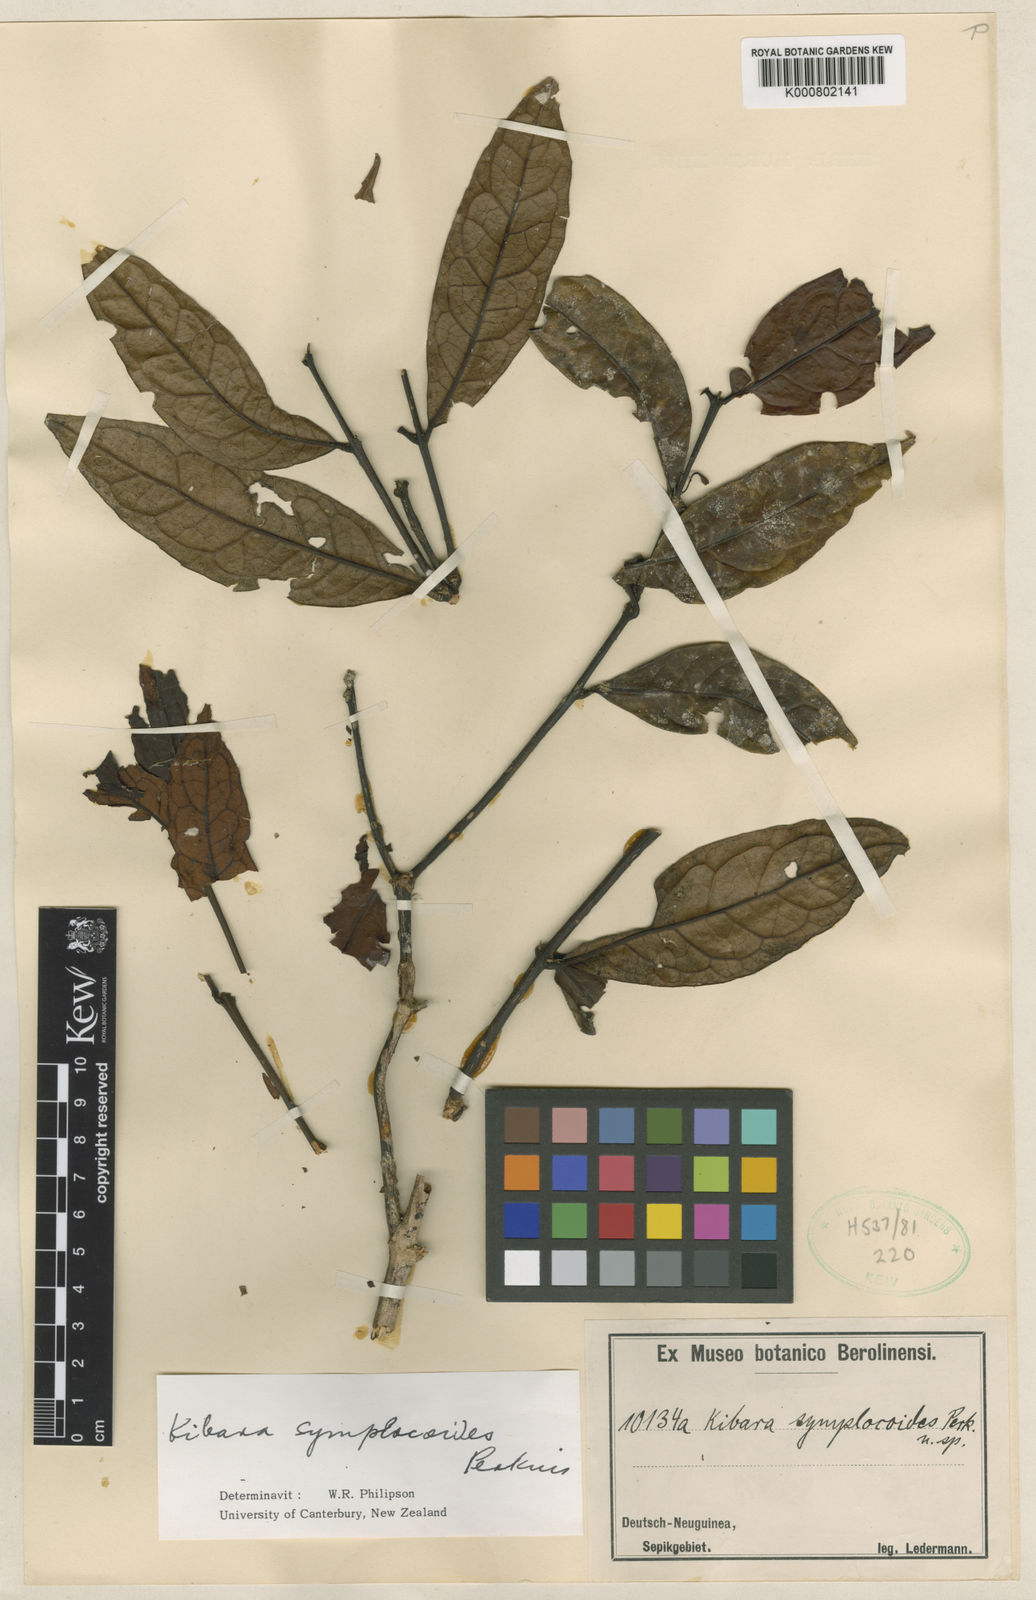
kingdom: Plantae
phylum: Tracheophyta
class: Magnoliopsida
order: Laurales
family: Monimiaceae
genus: Kibara
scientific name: Kibara symplocoides
